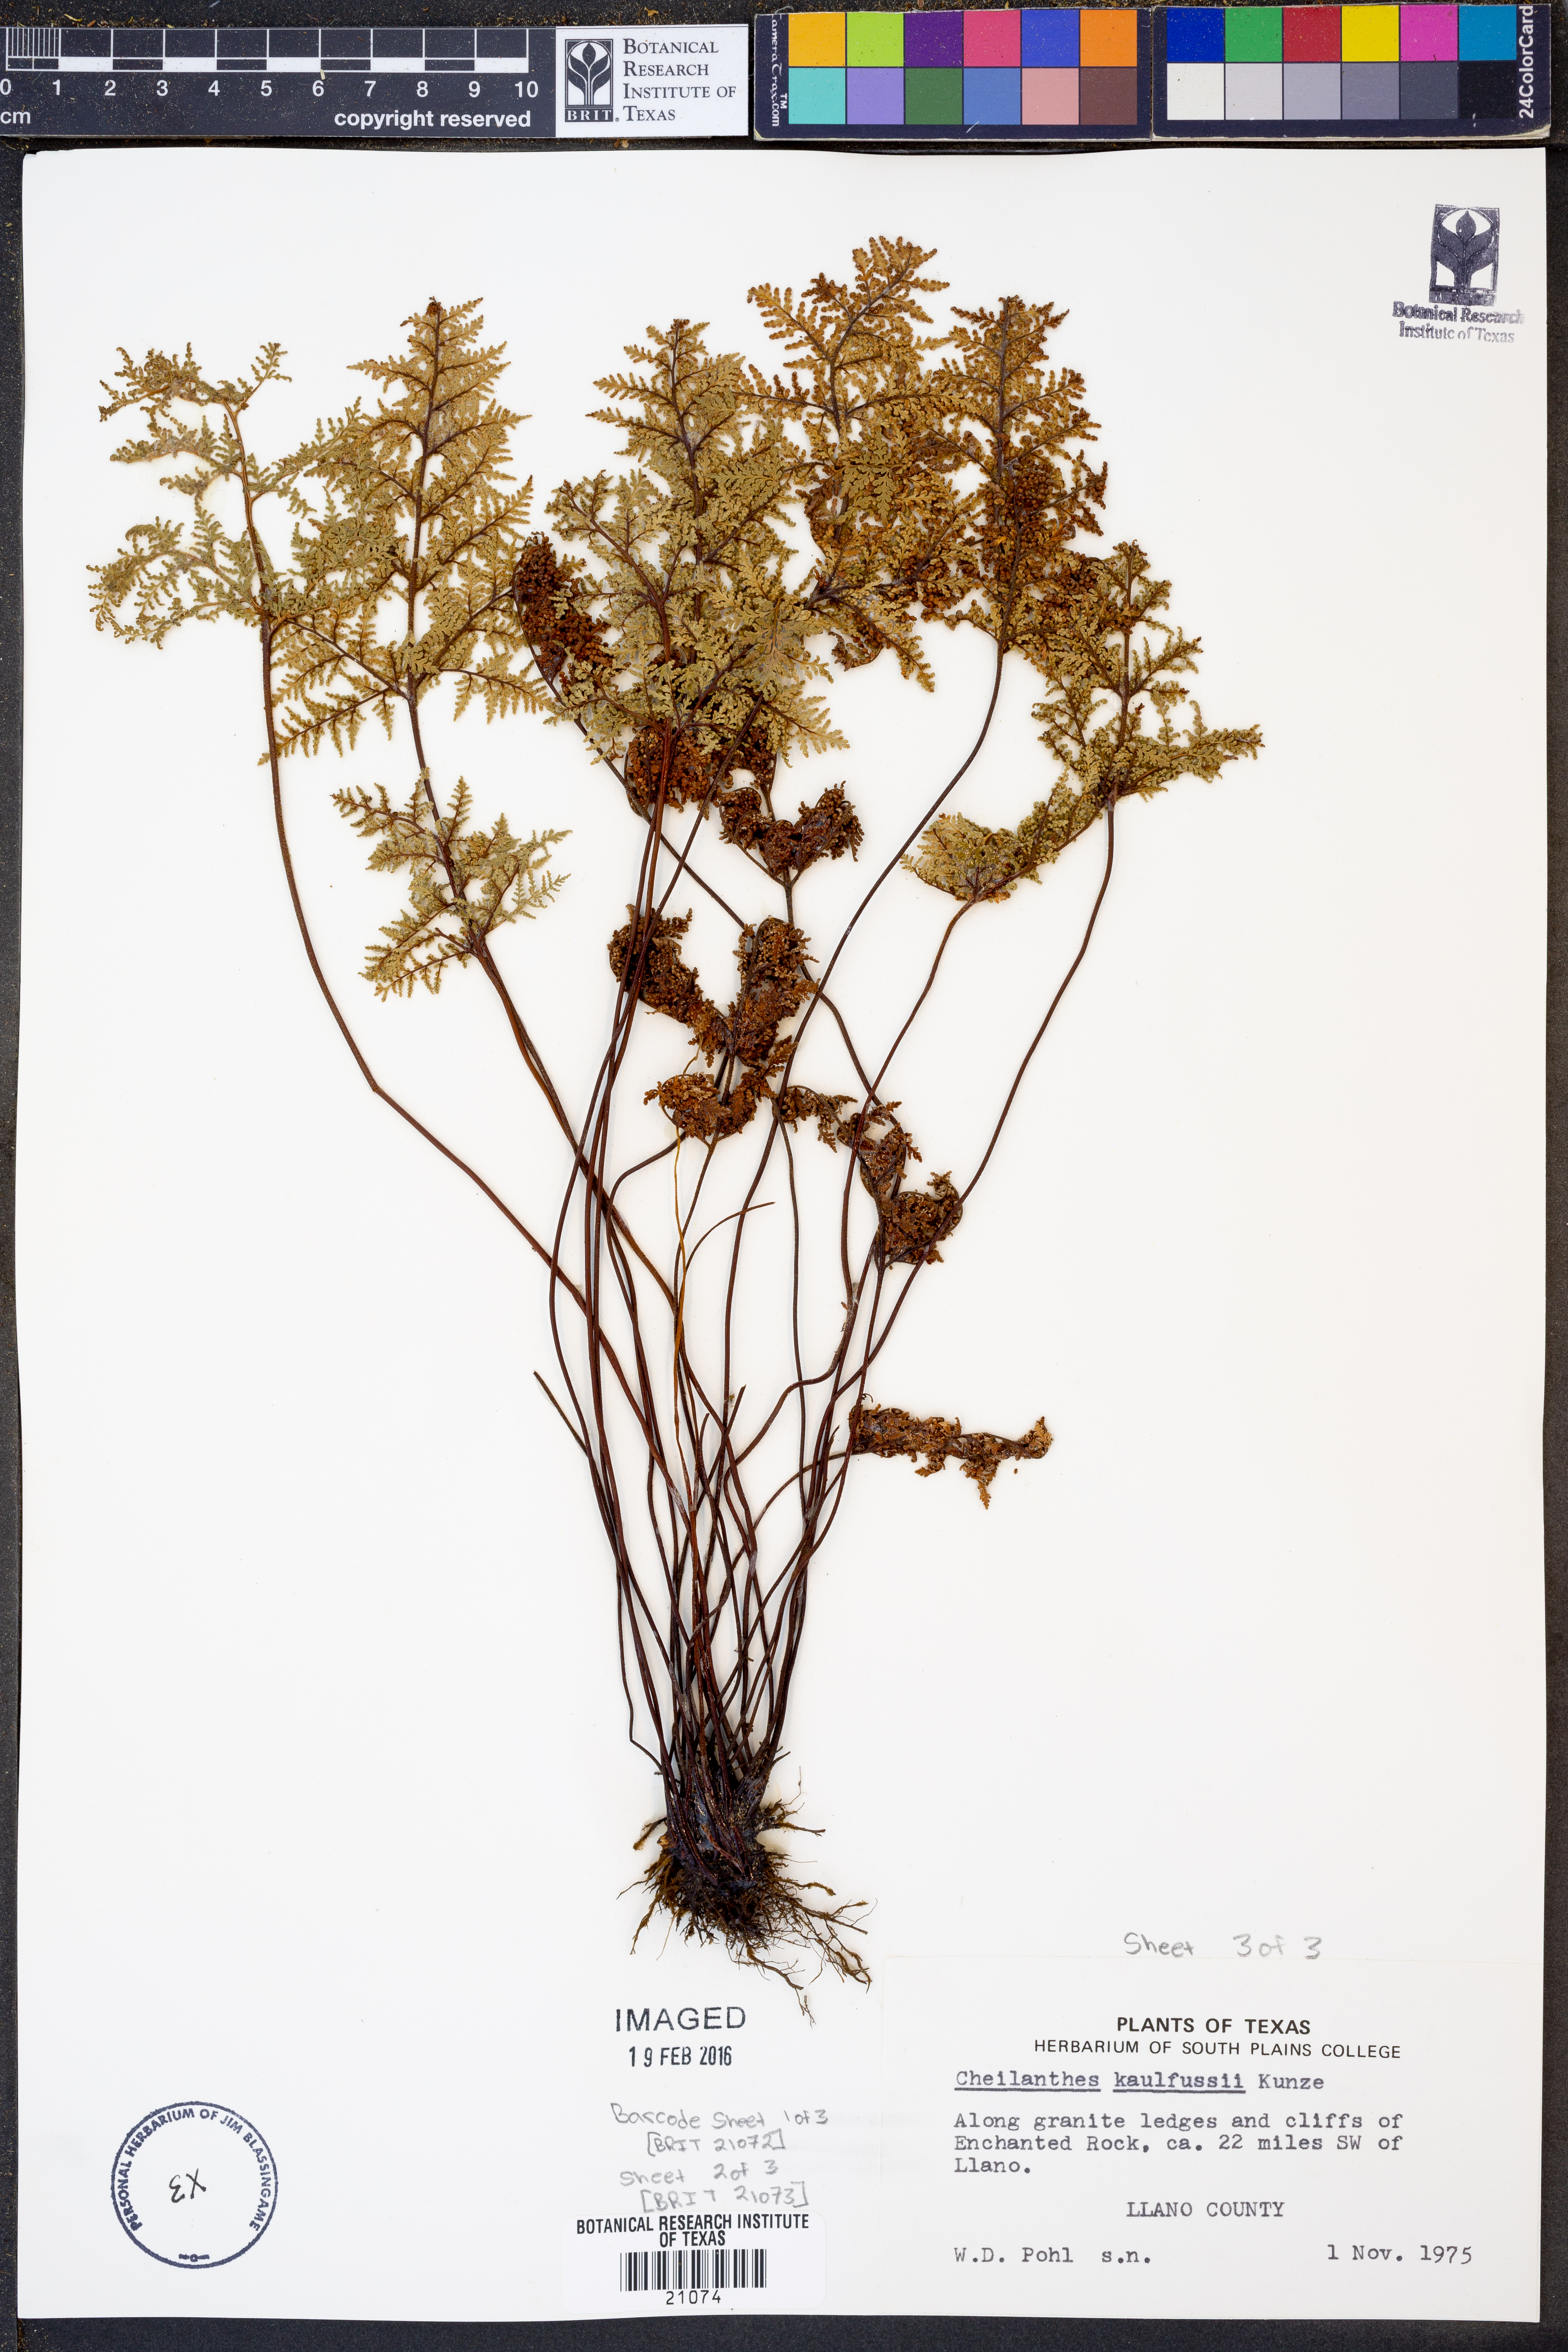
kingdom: Plantae
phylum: Tracheophyta
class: Polypodiopsida
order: Polypodiales
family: Pteridaceae
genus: Gaga
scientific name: Gaga kaulfussii
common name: Glandular lip fern
